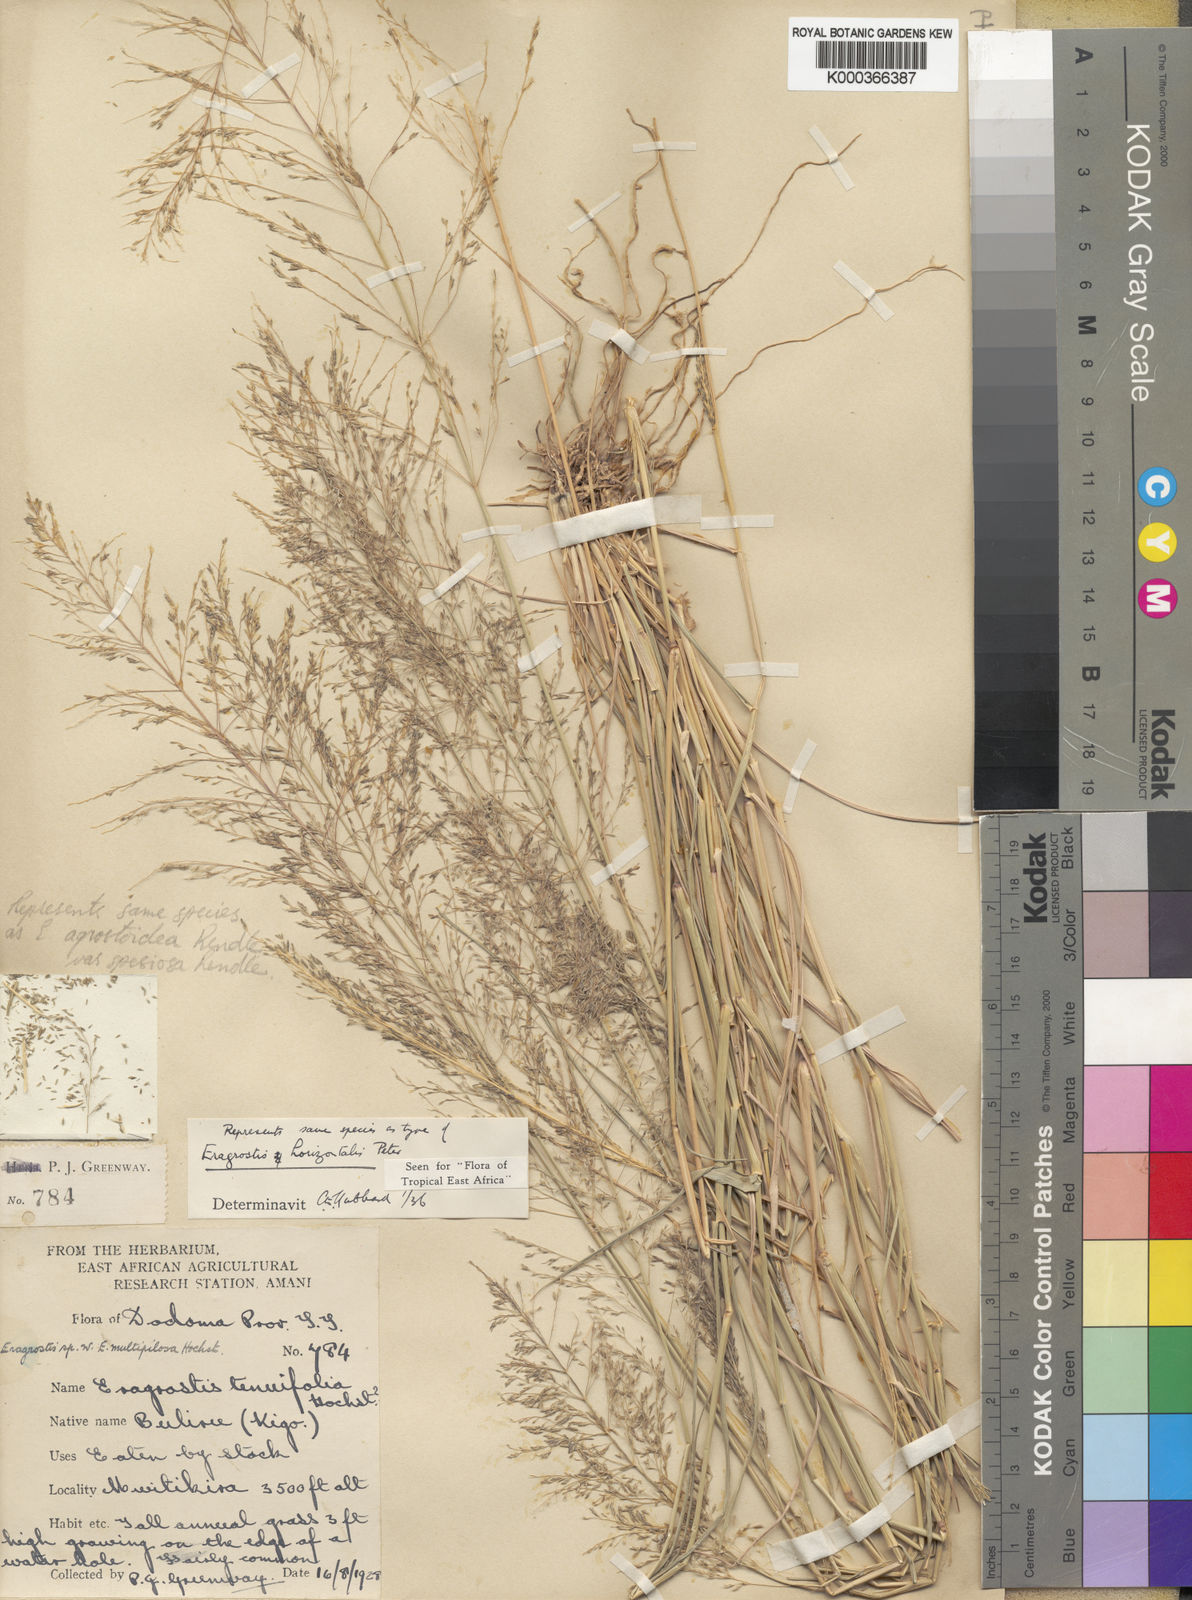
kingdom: Plantae
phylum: Tracheophyta
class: Liliopsida
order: Poales
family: Poaceae
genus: Eragrostis
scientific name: Eragrostis cylindriflora
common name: Cylinderflower lovegrass
